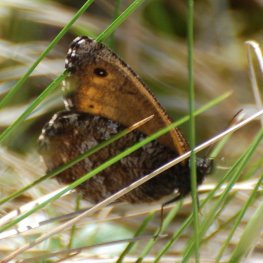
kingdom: Animalia
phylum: Arthropoda
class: Insecta
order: Lepidoptera
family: Nymphalidae
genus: Oeneis
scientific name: Oeneis jutta
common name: Jutta Arctic
